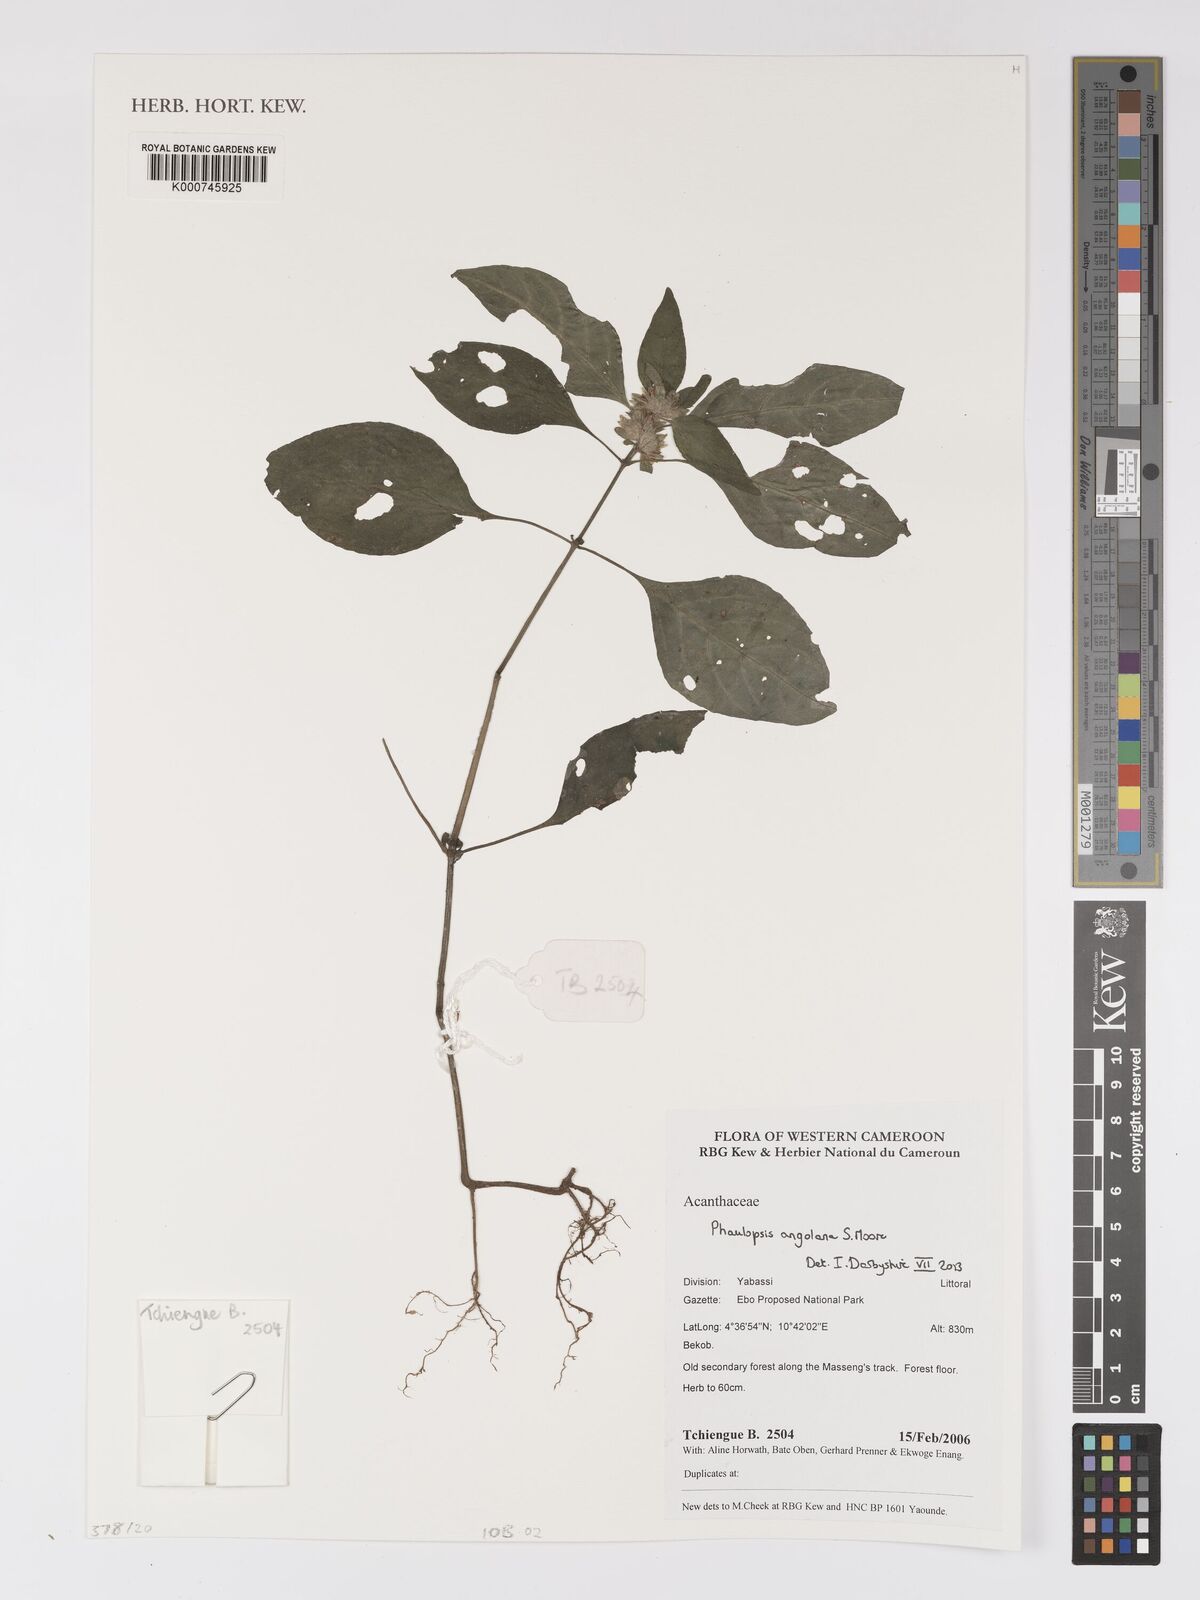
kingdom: Plantae
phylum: Tracheophyta
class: Magnoliopsida
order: Lamiales
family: Acanthaceae
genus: Phaulopsis
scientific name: Phaulopsis angolana
